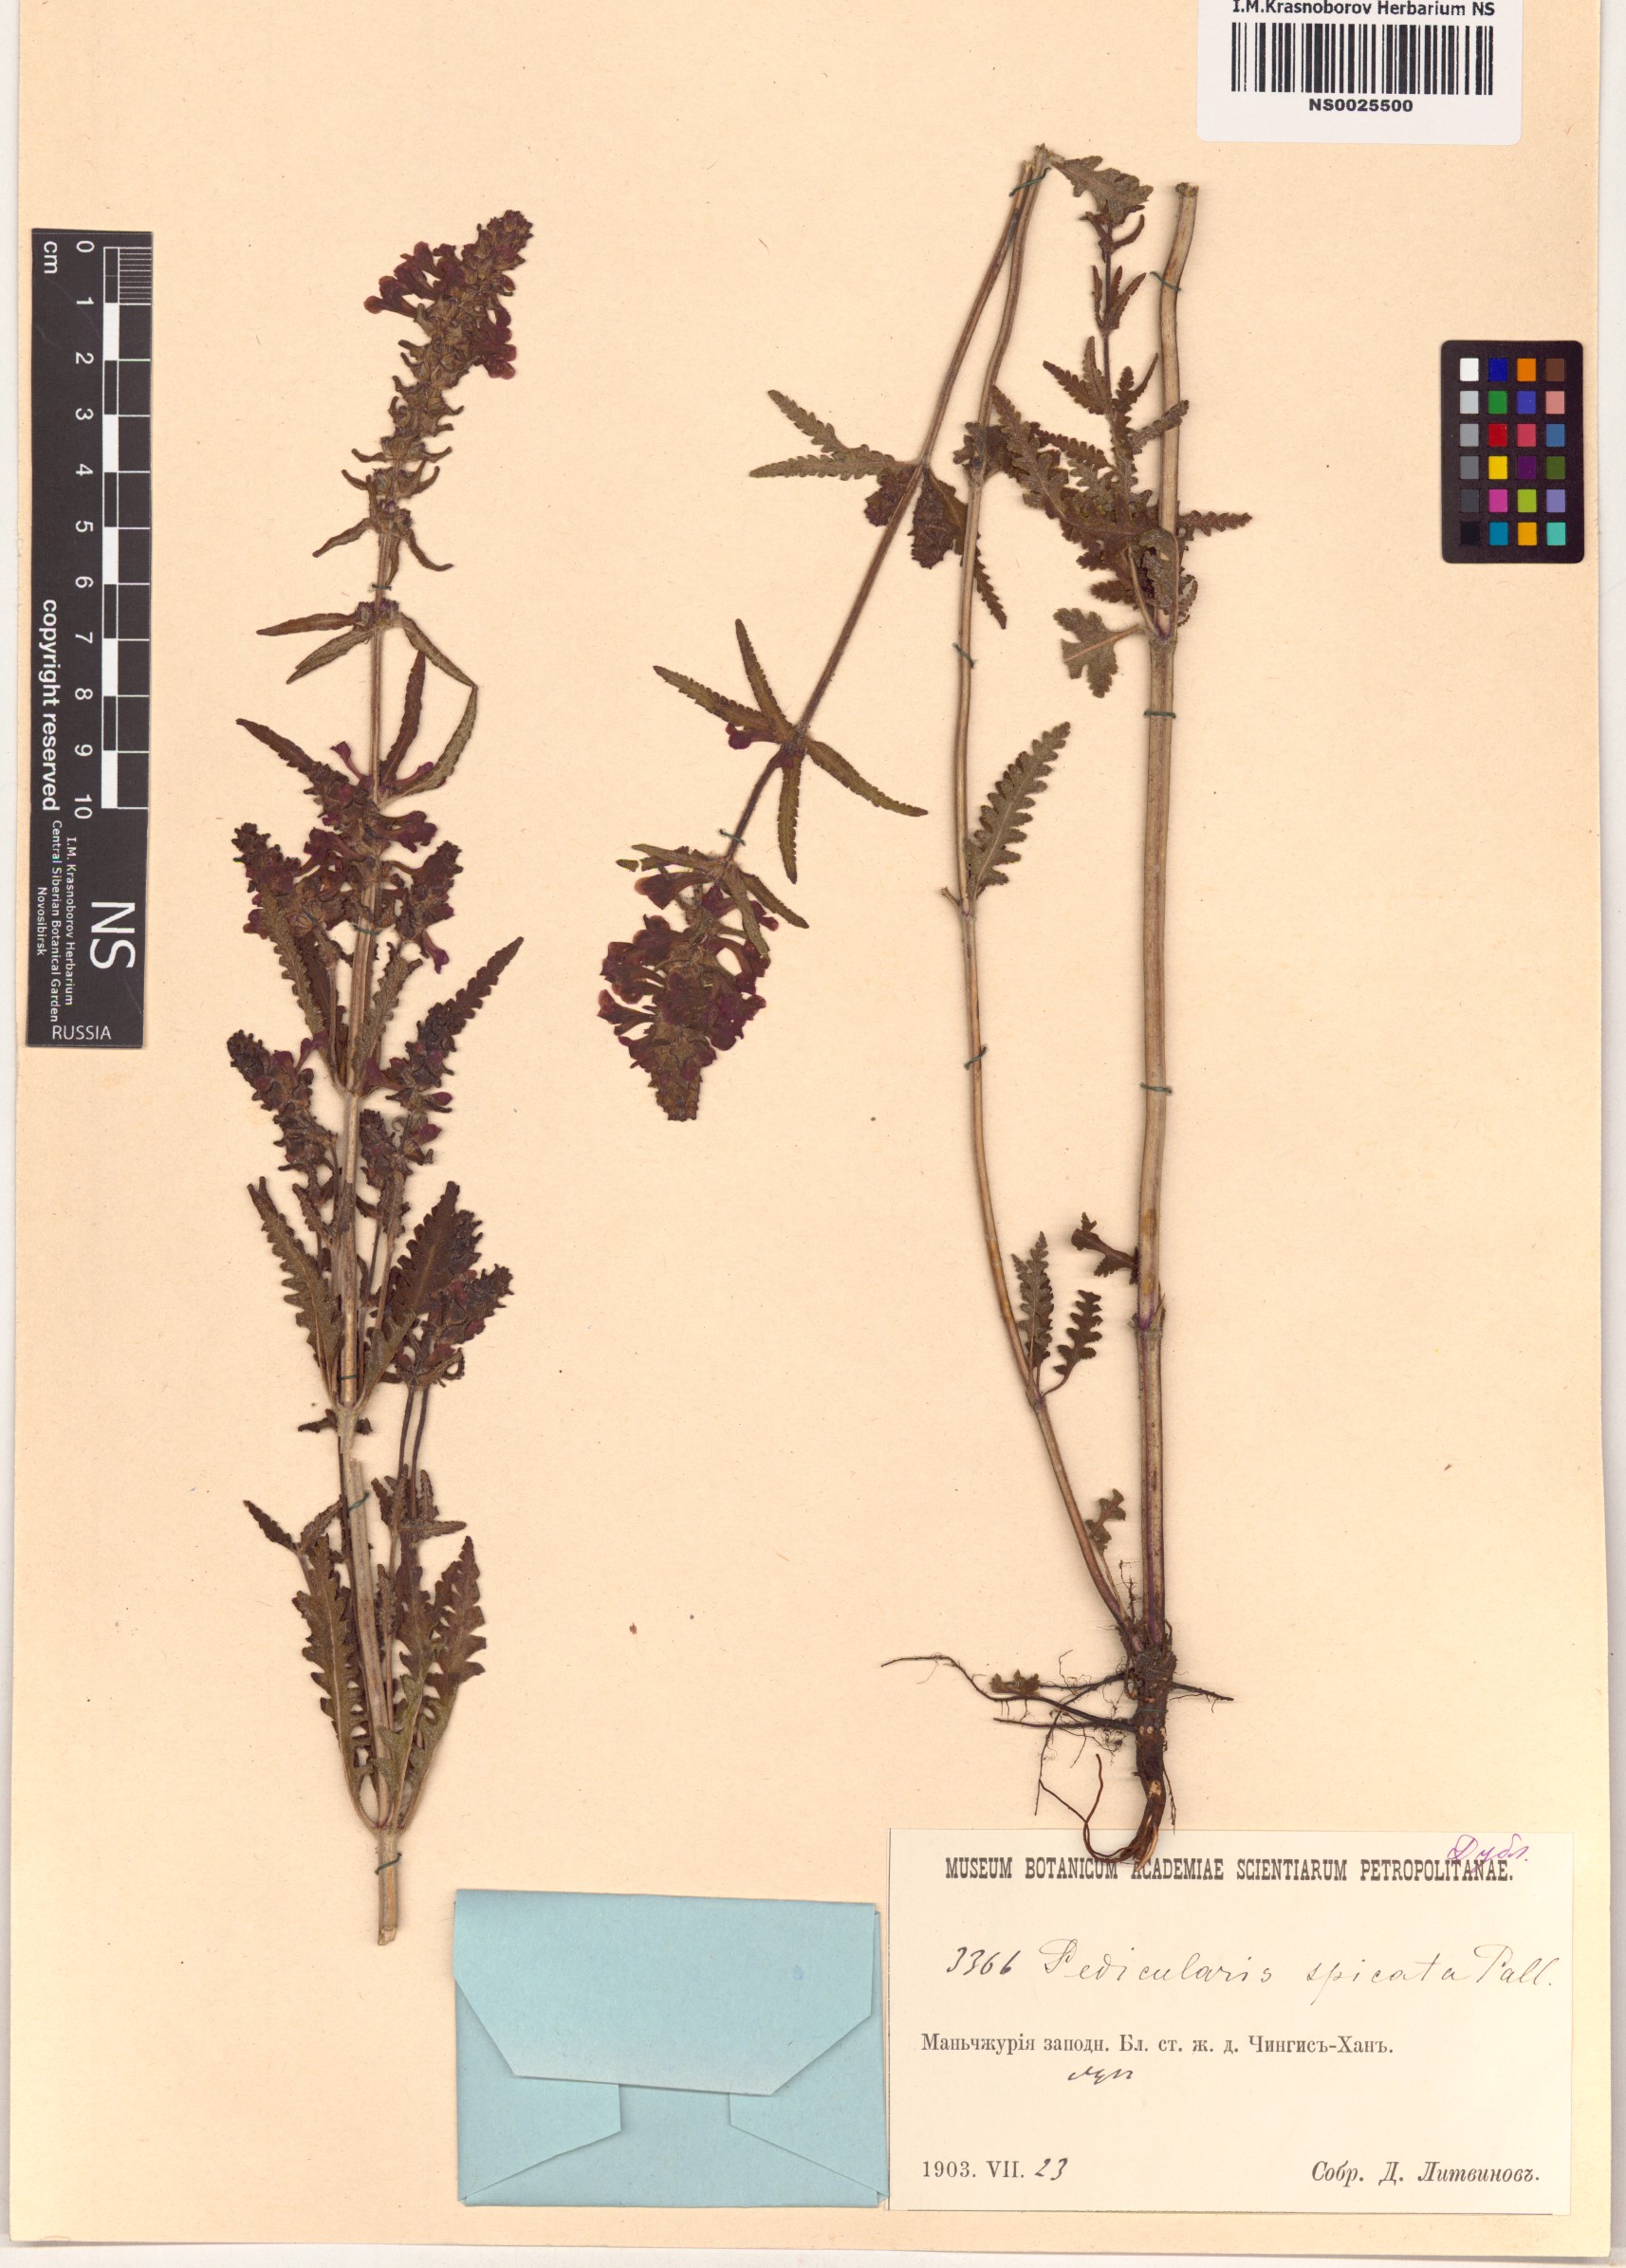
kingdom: Plantae
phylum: Tracheophyta
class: Magnoliopsida
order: Lamiales
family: Orobanchaceae
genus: Pedicularis
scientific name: Pedicularis spicata
